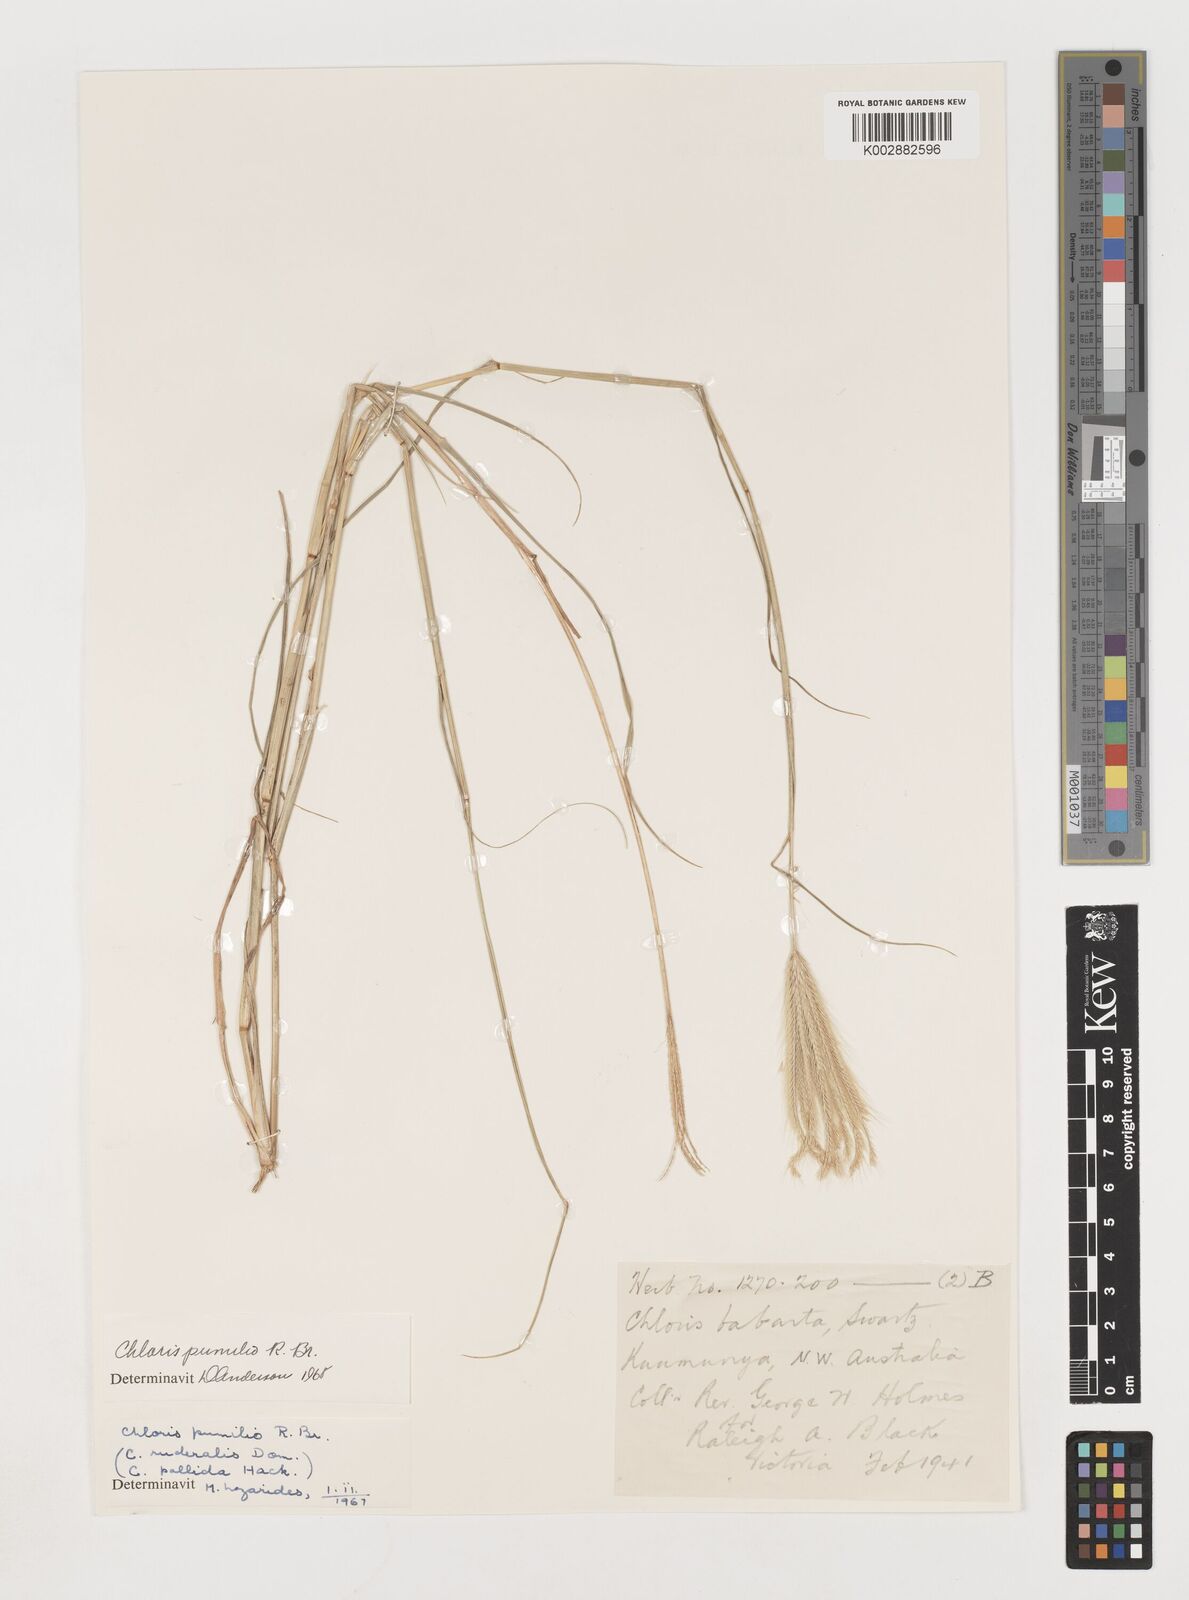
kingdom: Plantae
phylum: Tracheophyta
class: Liliopsida
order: Poales
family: Poaceae
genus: Chloris
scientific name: Chloris pumilio
